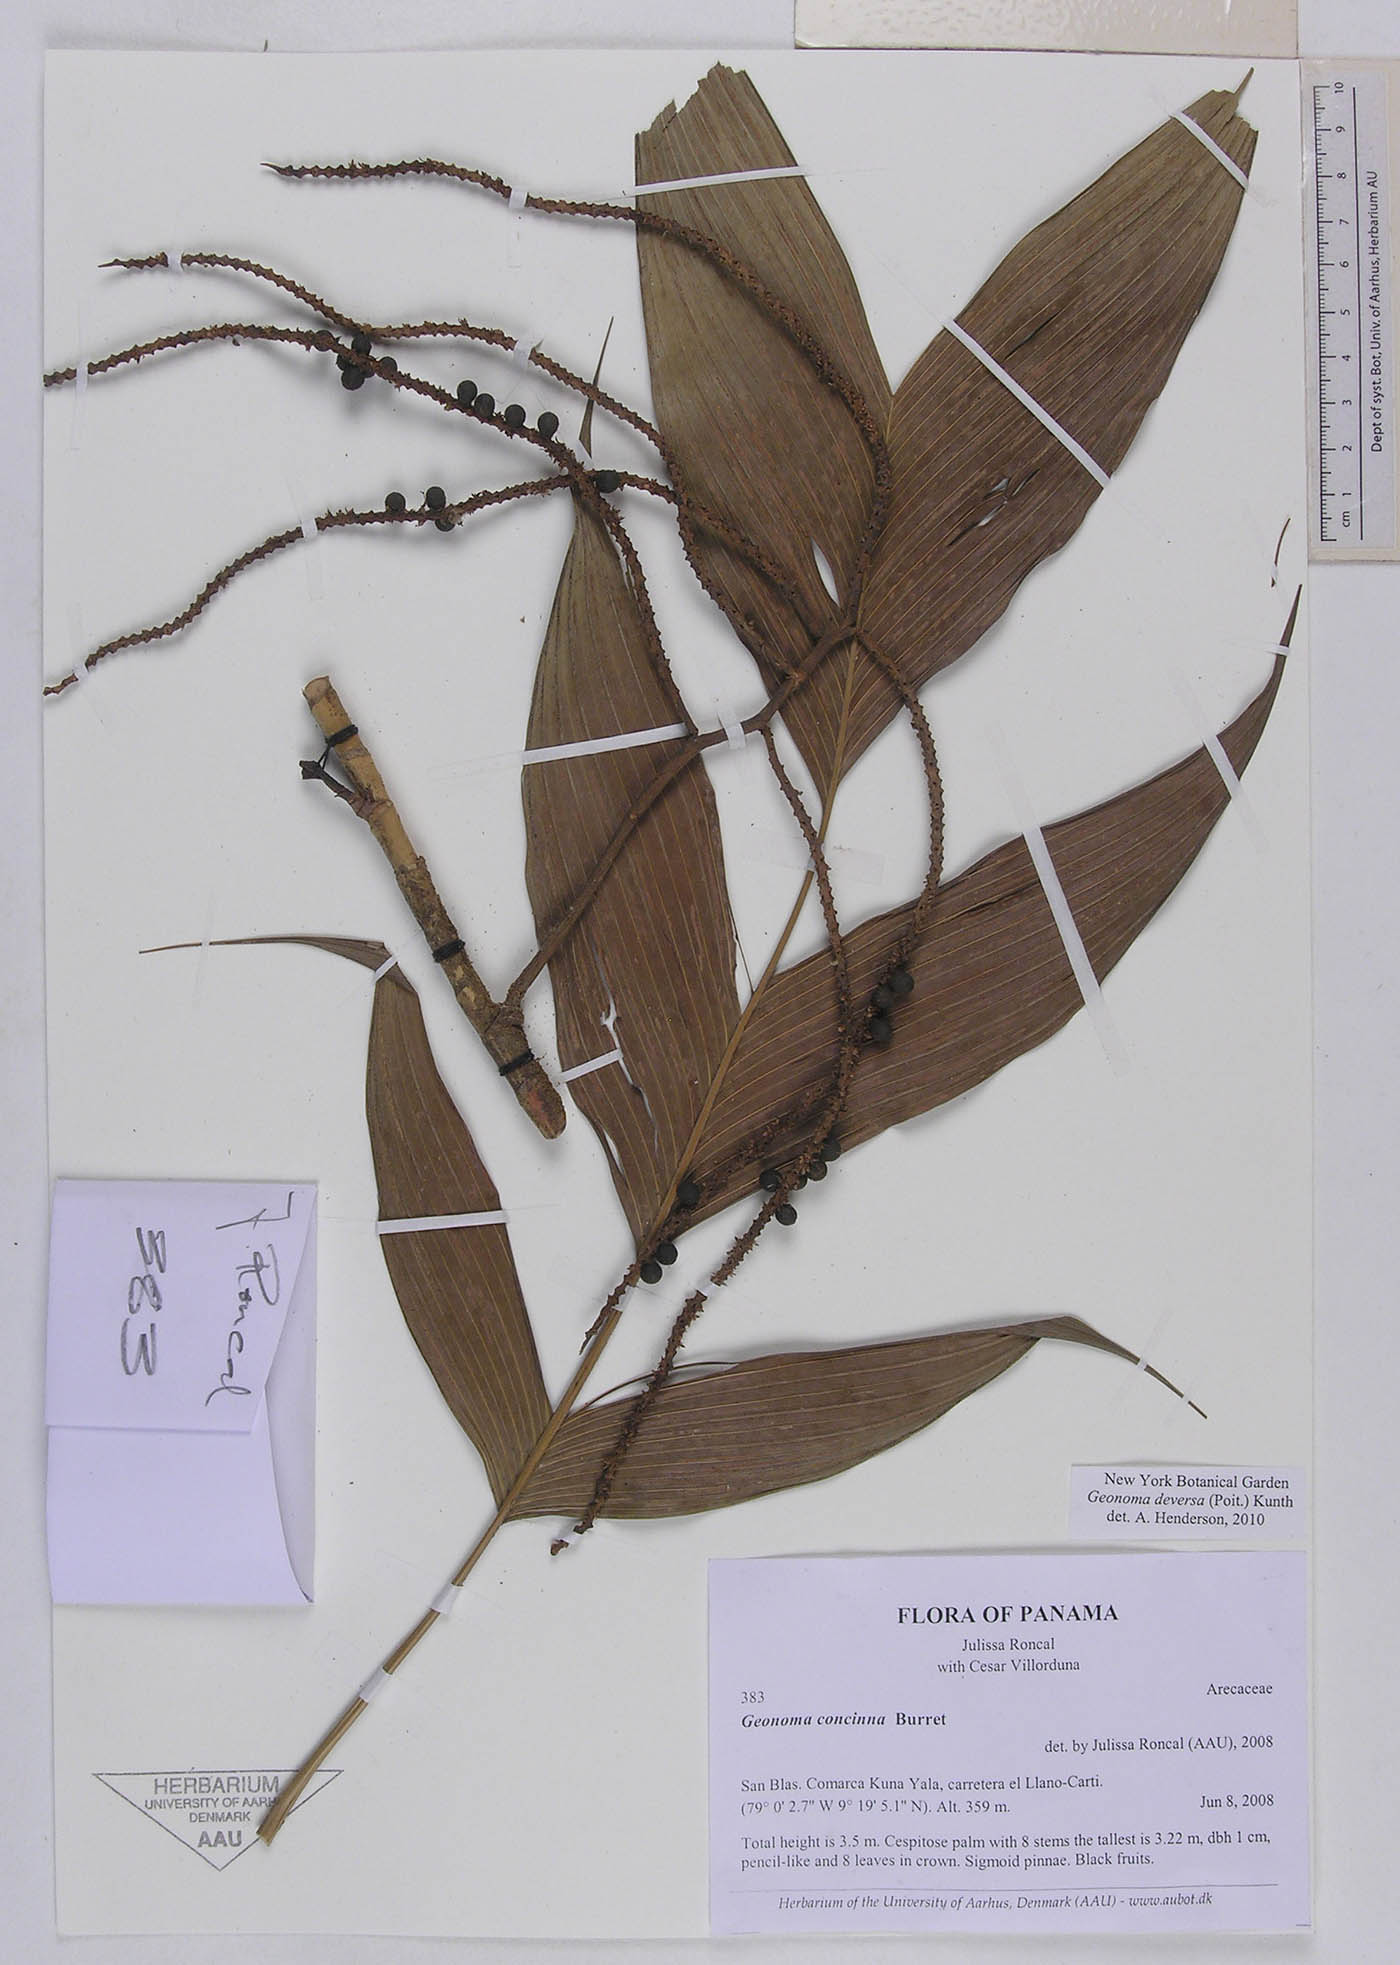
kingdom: Plantae
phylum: Tracheophyta
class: Liliopsida
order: Arecales
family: Arecaceae
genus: Geonoma
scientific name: Geonoma deversa
